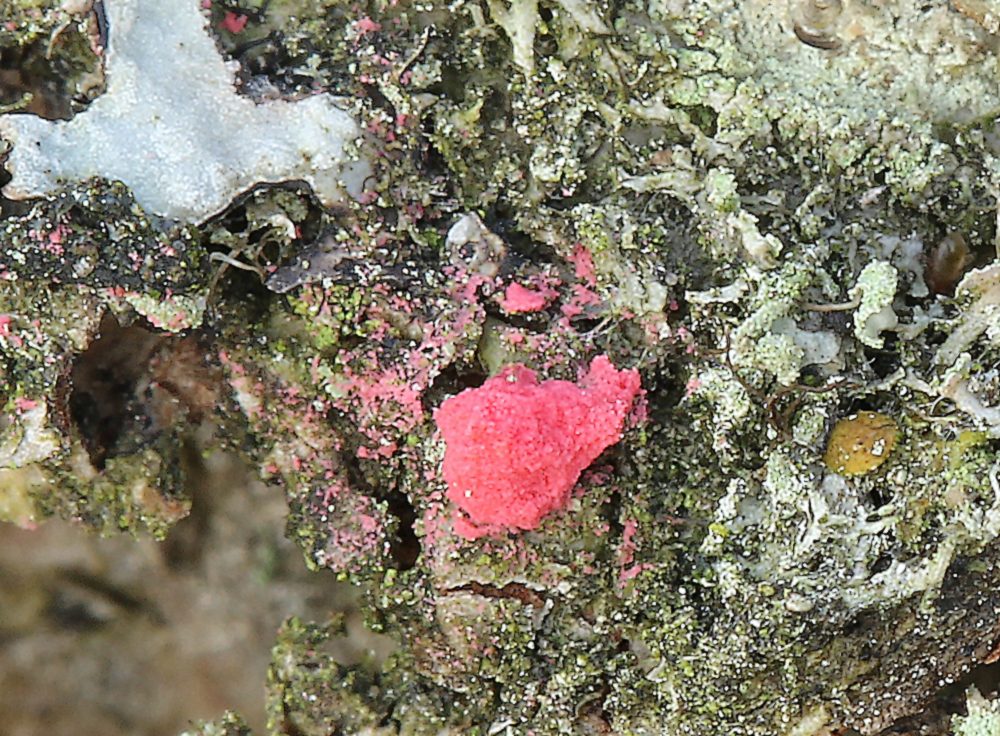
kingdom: Fungi
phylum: Ascomycota
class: Sordariomycetes
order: Hypocreales
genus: Illosporiopsis
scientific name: Illosporiopsis christiansenii
